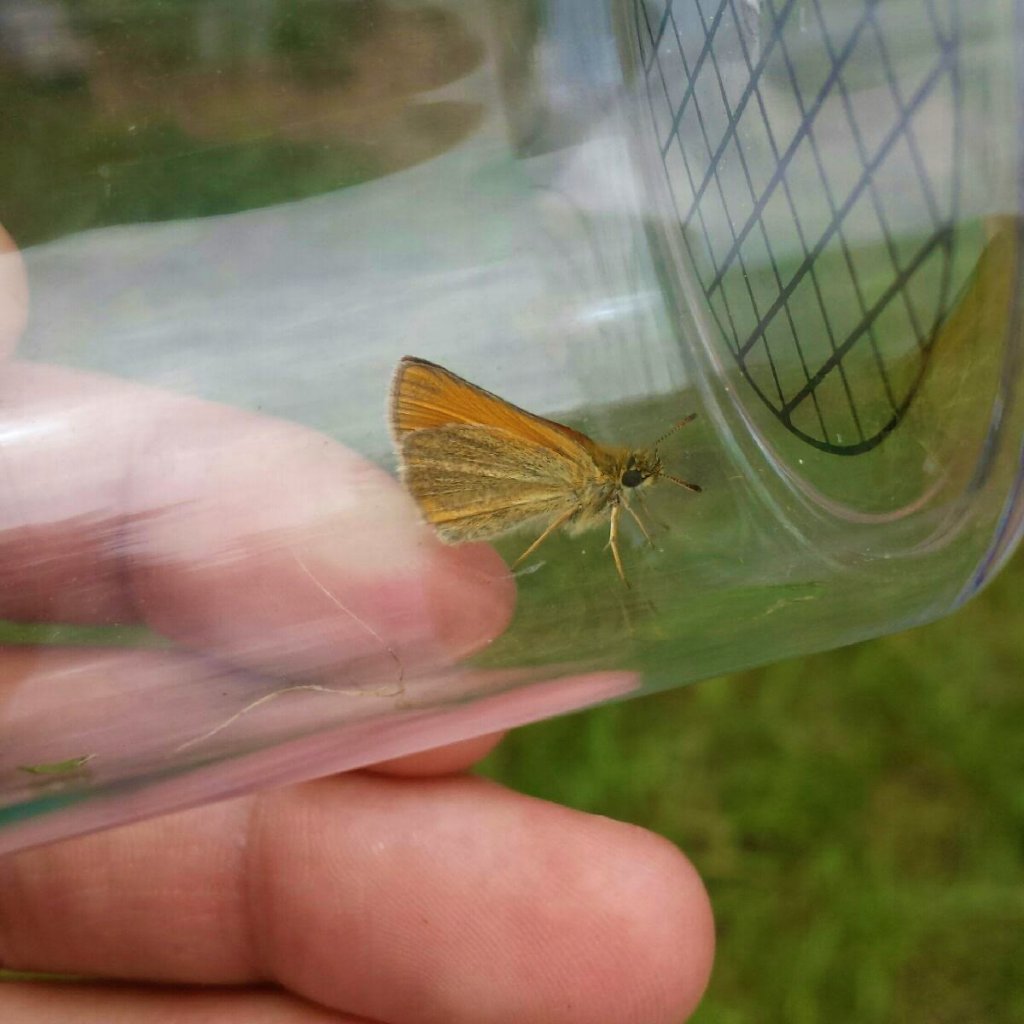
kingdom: Animalia
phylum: Arthropoda
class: Insecta
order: Lepidoptera
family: Hesperiidae
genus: Thymelicus
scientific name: Thymelicus lineola
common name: European Skipper
